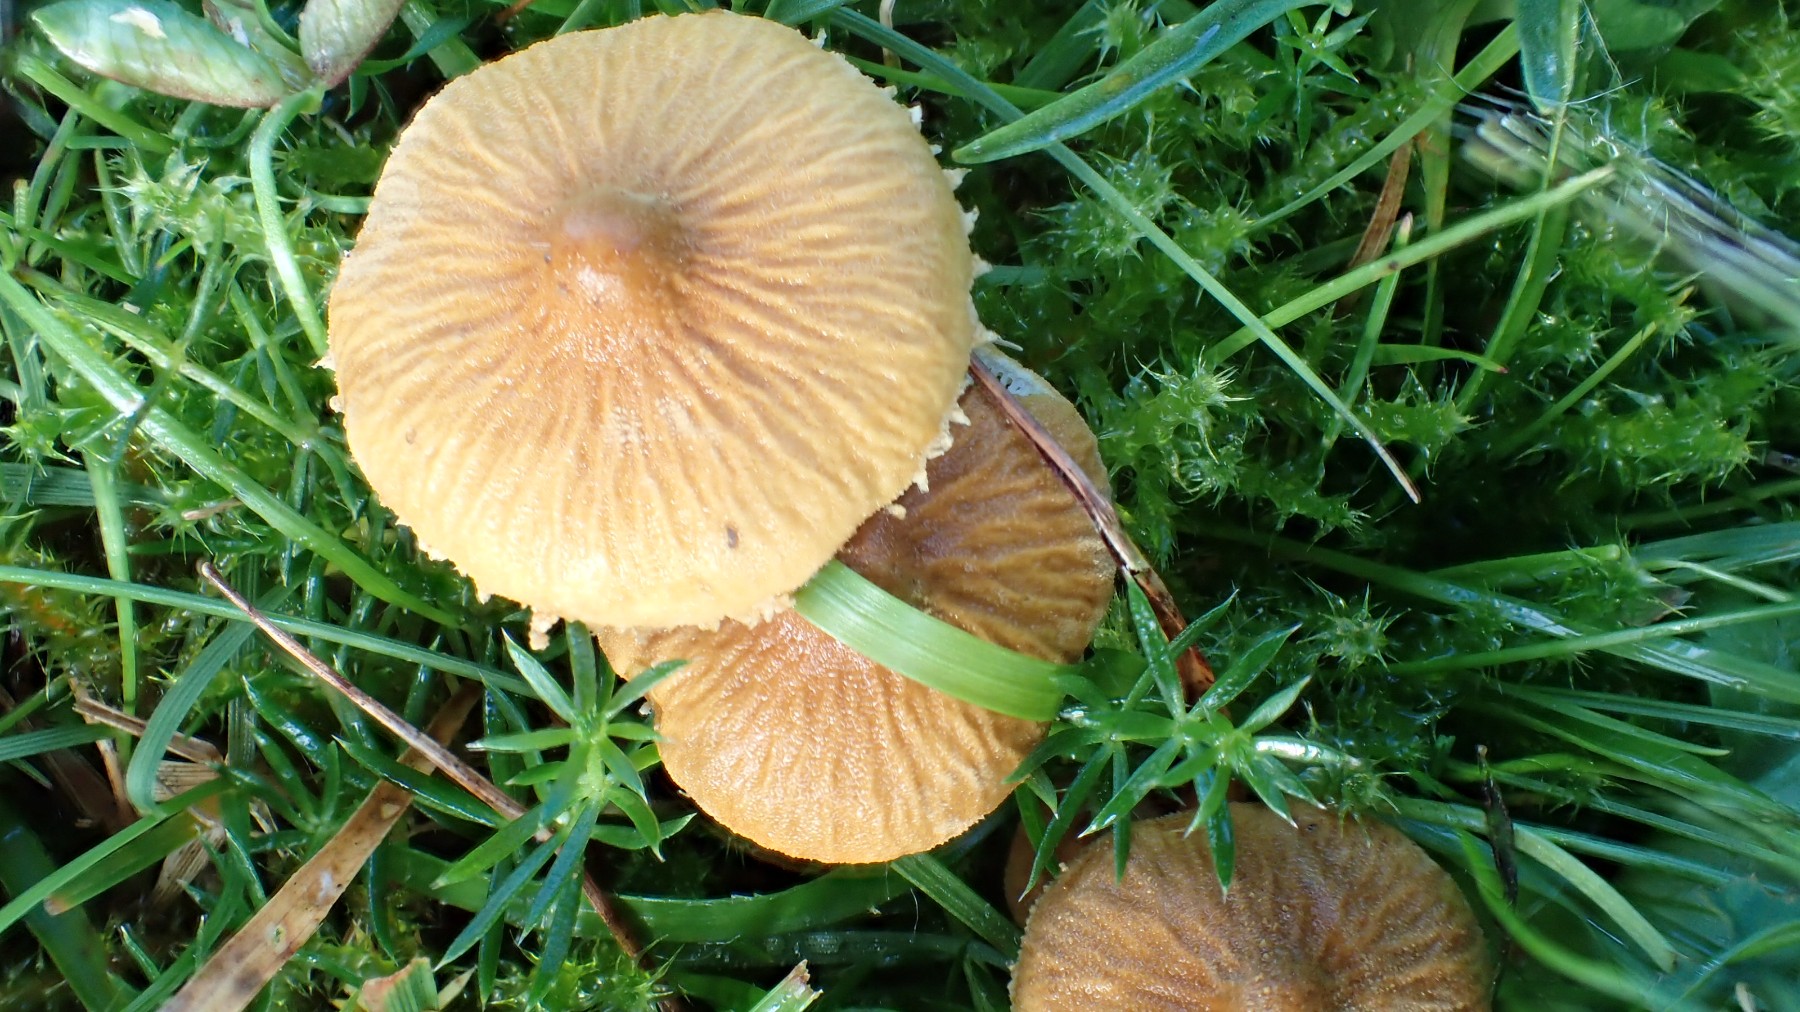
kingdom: Fungi
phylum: Basidiomycota
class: Agaricomycetes
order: Agaricales
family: Tricholomataceae
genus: Cystoderma
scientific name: Cystoderma amianthinum
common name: okkergul grynhat
